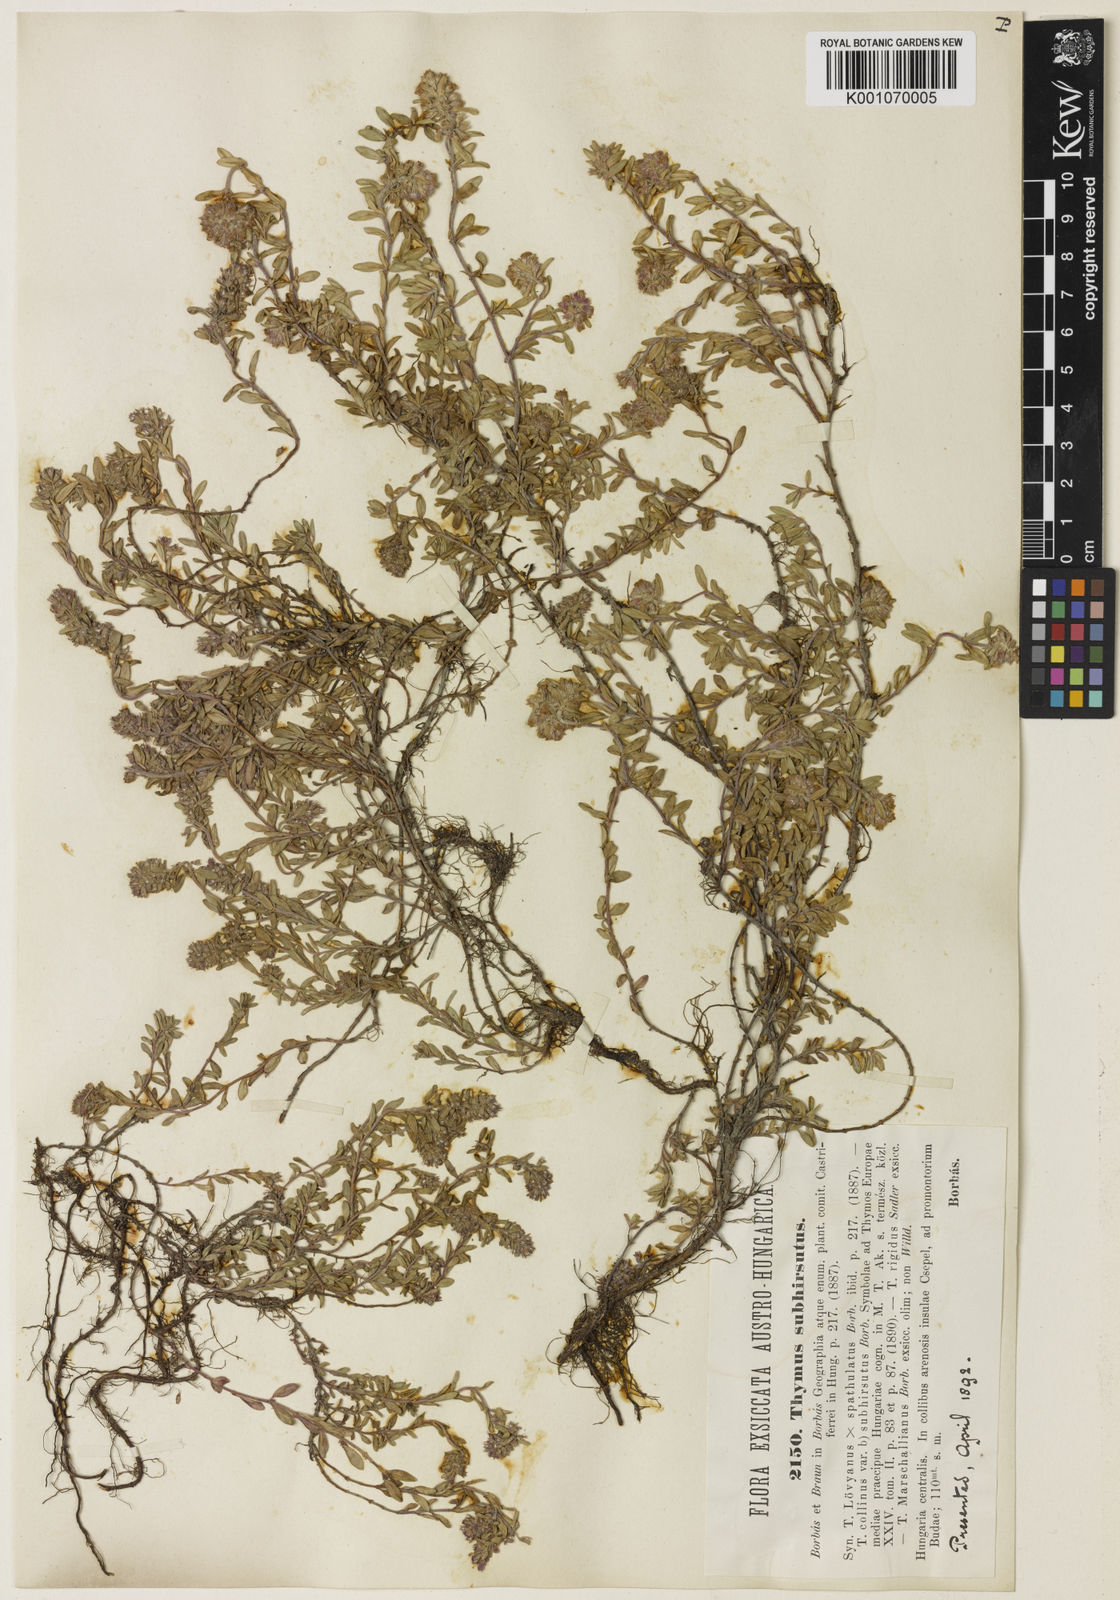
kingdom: Plantae
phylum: Tracheophyta
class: Magnoliopsida
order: Lamiales
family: Lamiaceae
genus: Thymus
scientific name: Thymus pannonicus
